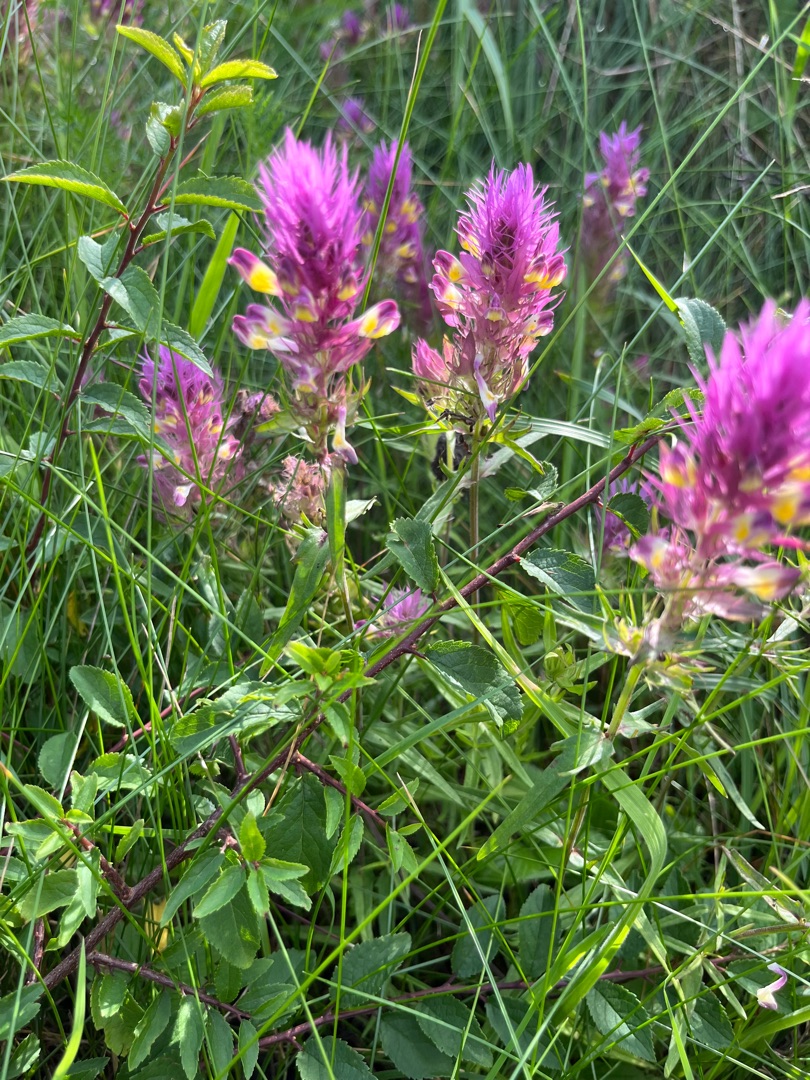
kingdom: Plantae
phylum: Tracheophyta
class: Magnoliopsida
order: Lamiales
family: Orobanchaceae
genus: Melampyrum
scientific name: Melampyrum arvense
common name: Ager-kohvede
